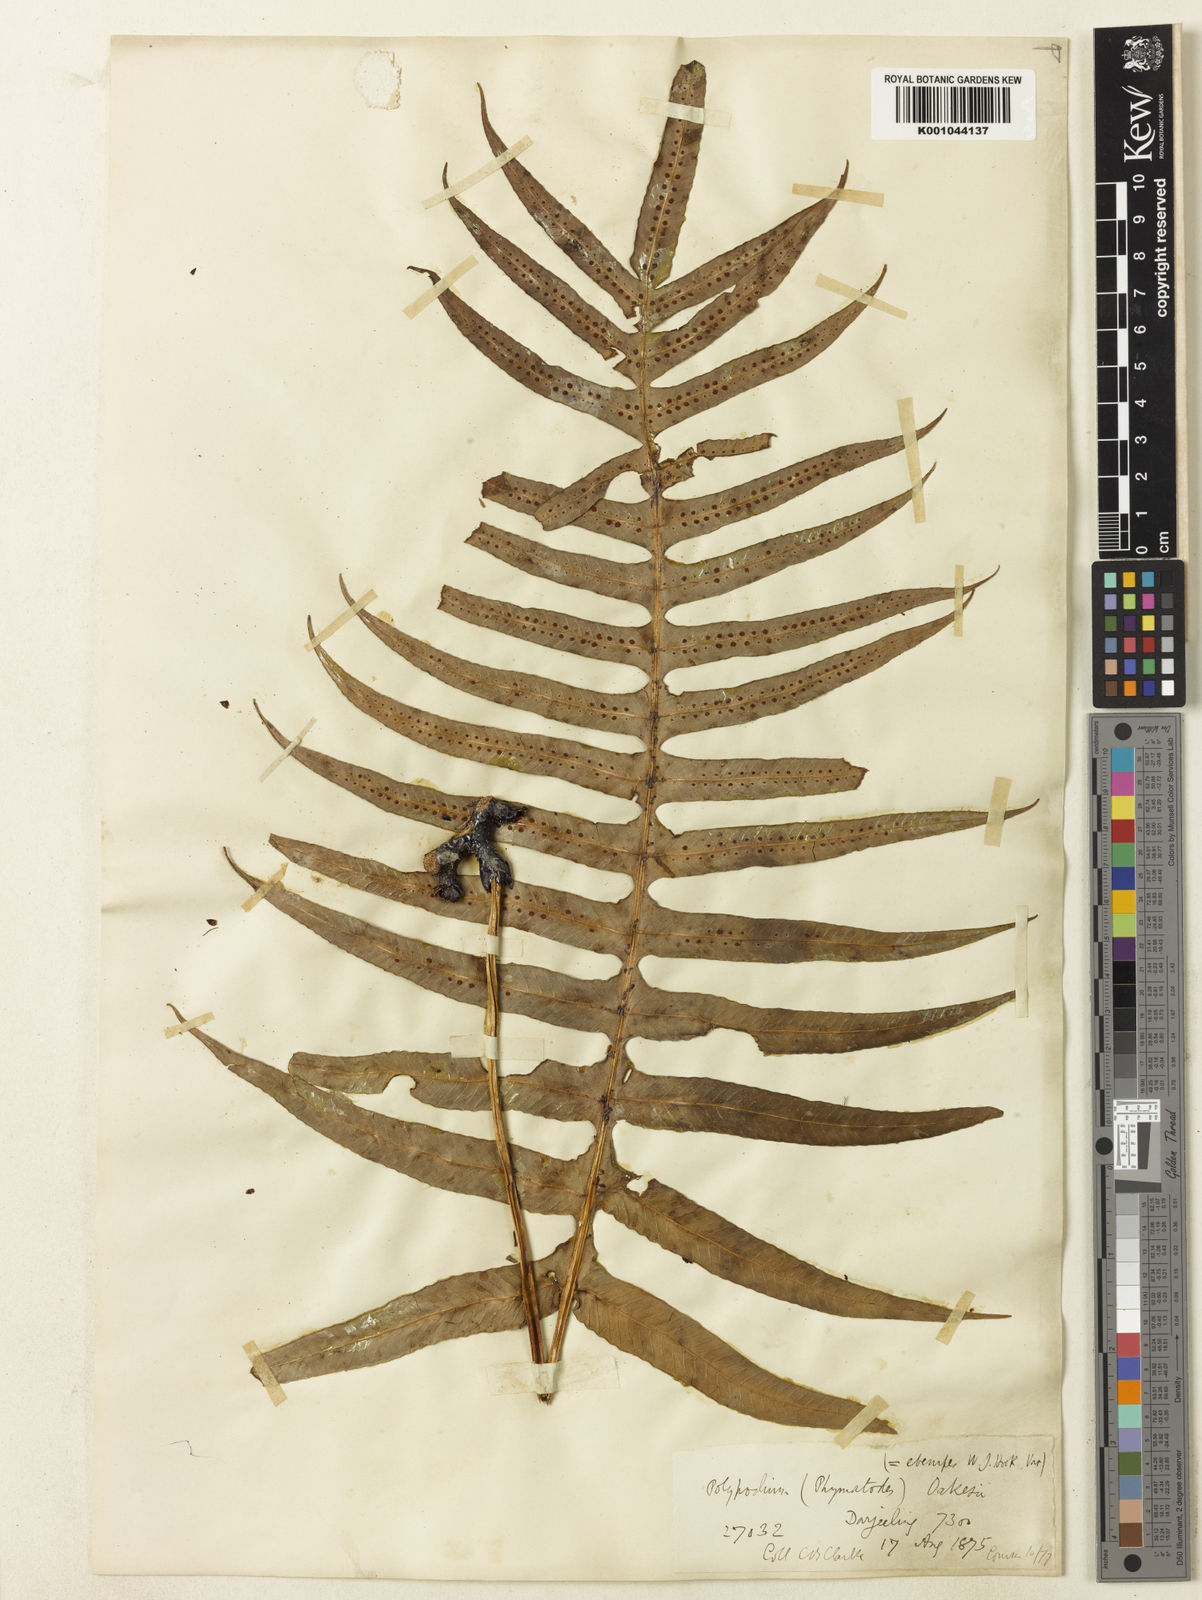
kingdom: Plantae
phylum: Tracheophyta
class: Polypodiopsida
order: Polypodiales
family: Polypodiaceae
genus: Selliguea
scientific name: Selliguea ebenipes
